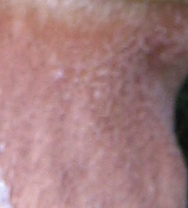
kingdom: Fungi
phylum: Basidiomycota
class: Agaricomycetes
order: Boletales
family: Boletaceae
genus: Boletus
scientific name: Boletus pinophilus
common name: rødbrun rørhat
